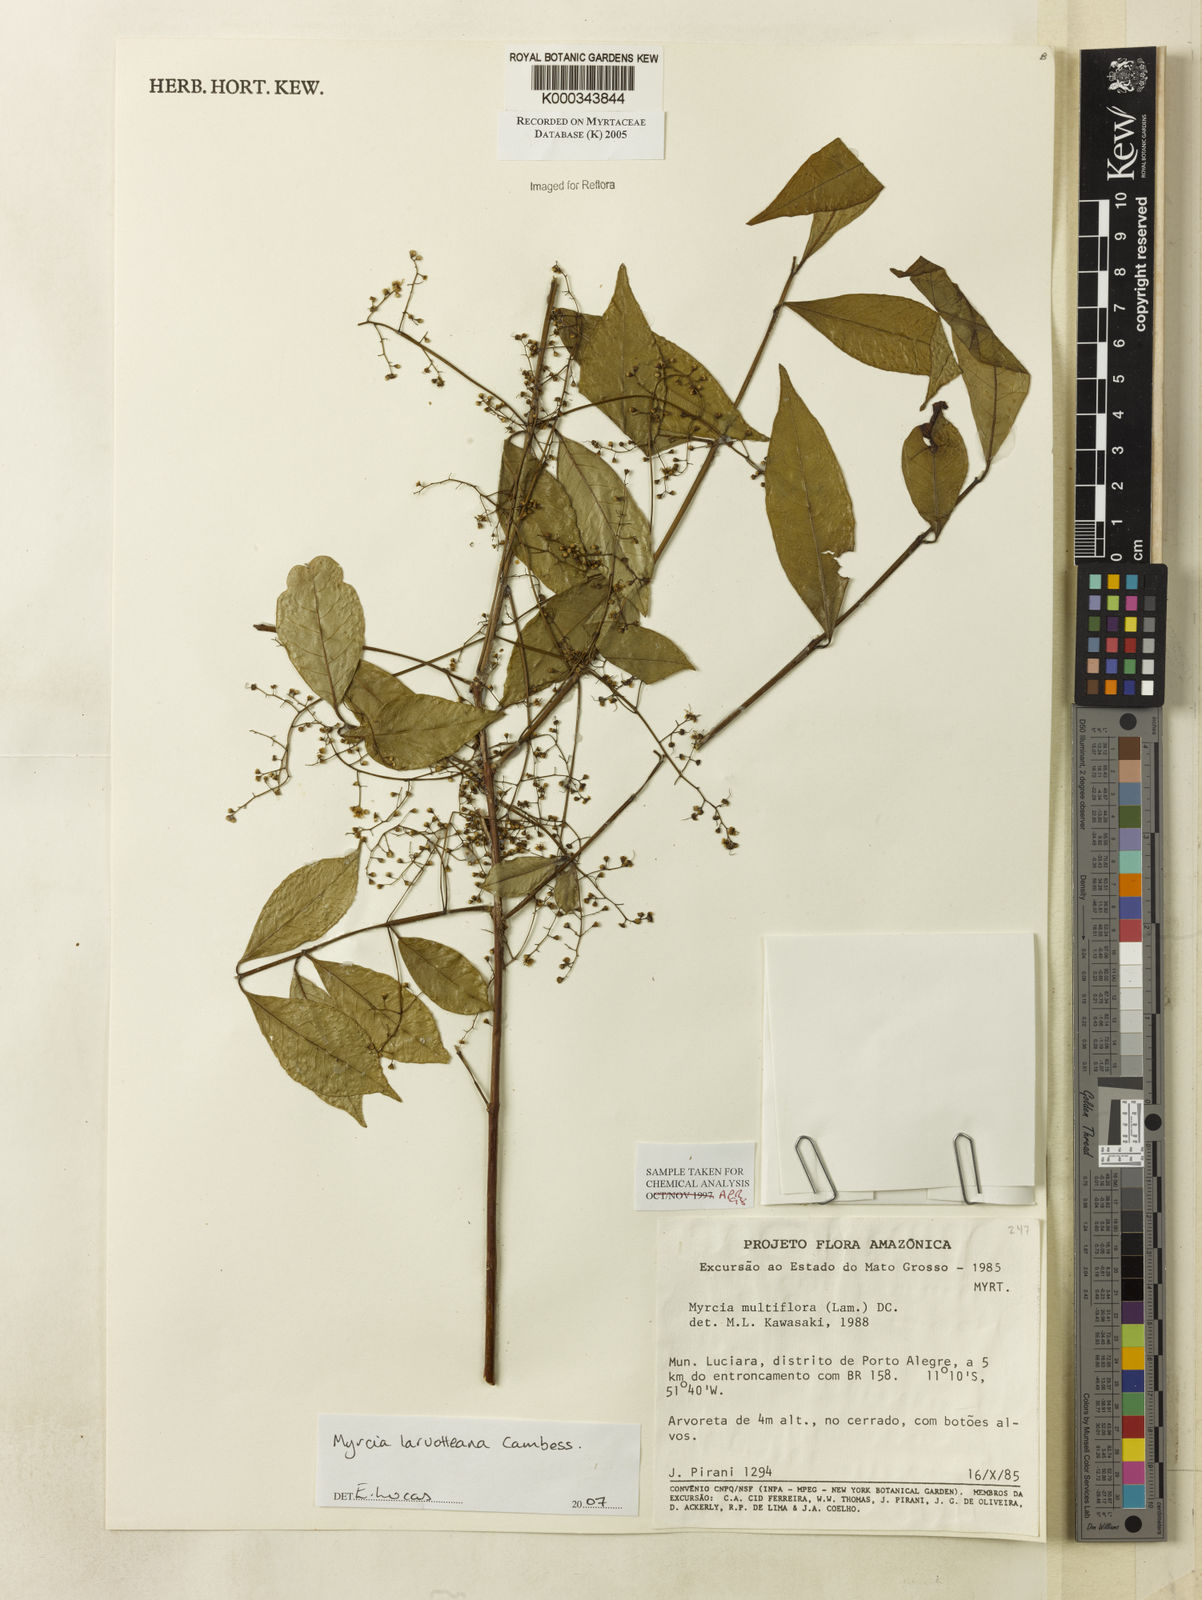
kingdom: Plantae
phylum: Tracheophyta
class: Magnoliopsida
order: Myrtales
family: Myrtaceae
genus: Myrcia
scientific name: Myrcia multiflora
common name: Pedra hume
